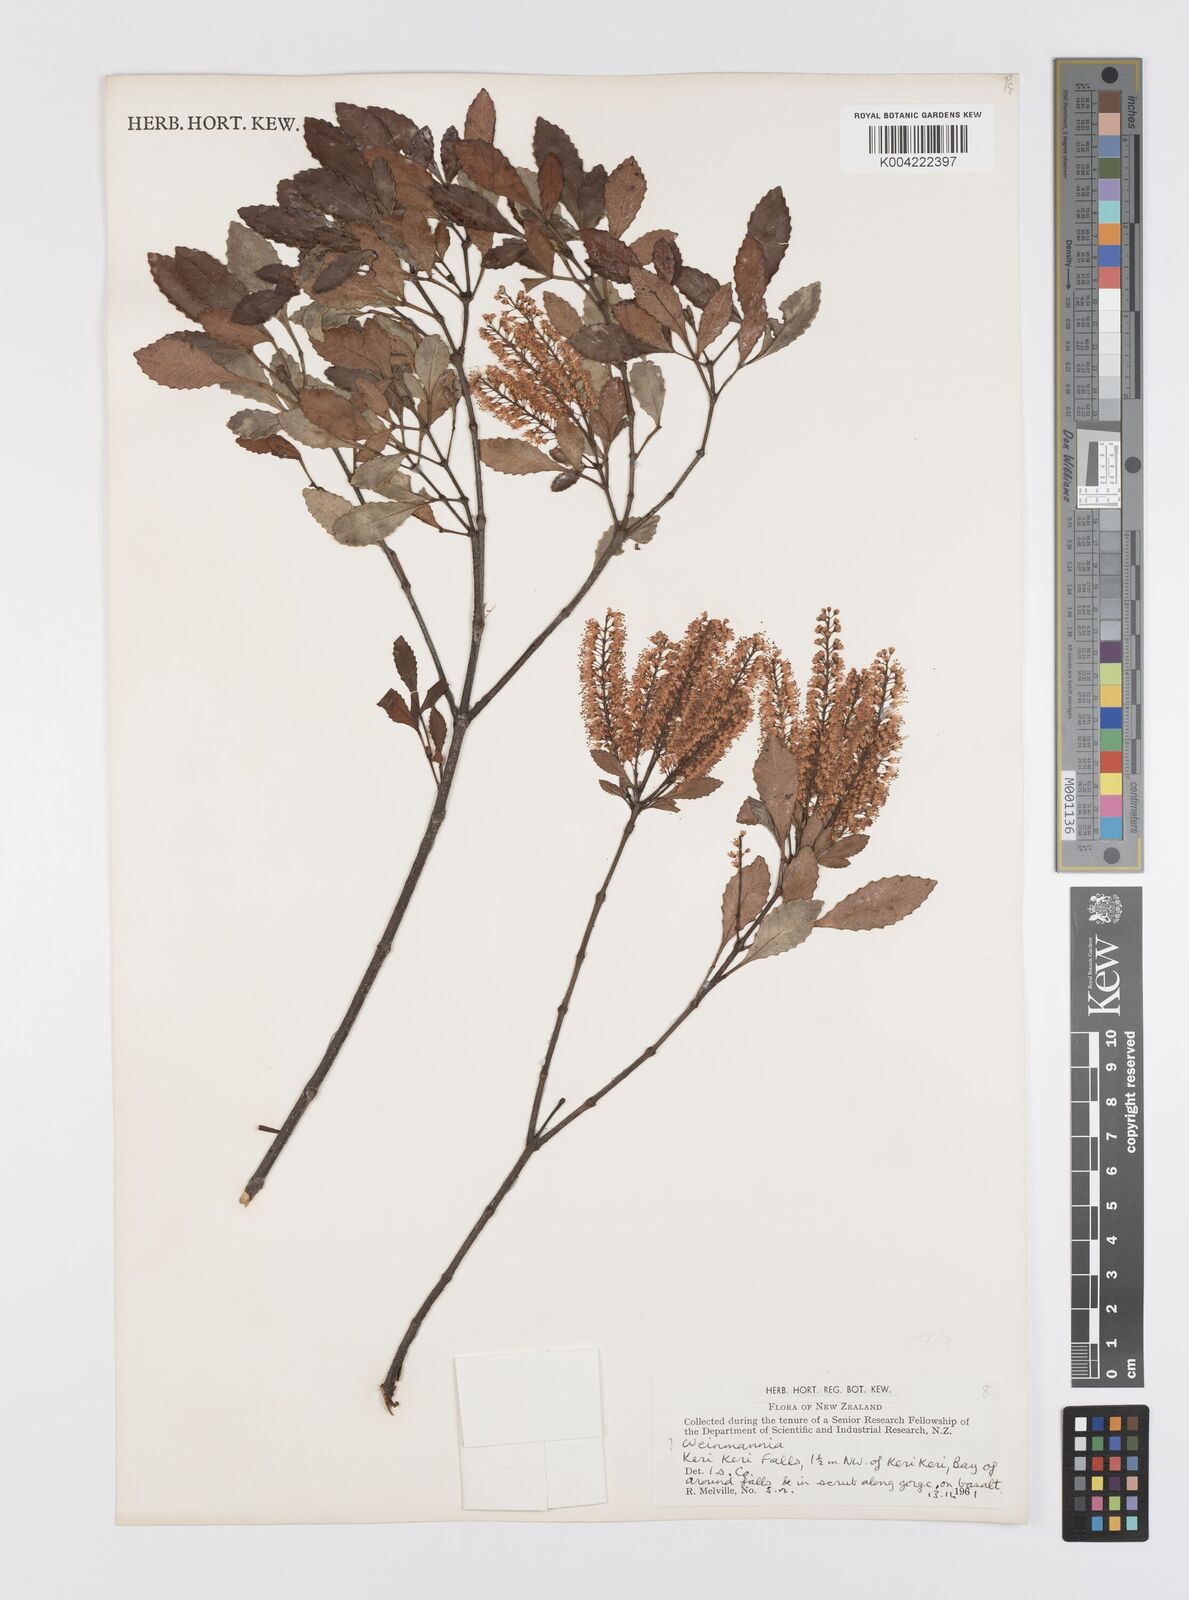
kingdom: Plantae
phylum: Tracheophyta
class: Magnoliopsida
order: Oxalidales
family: Cunoniaceae
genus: Weinmannia
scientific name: Weinmannia
